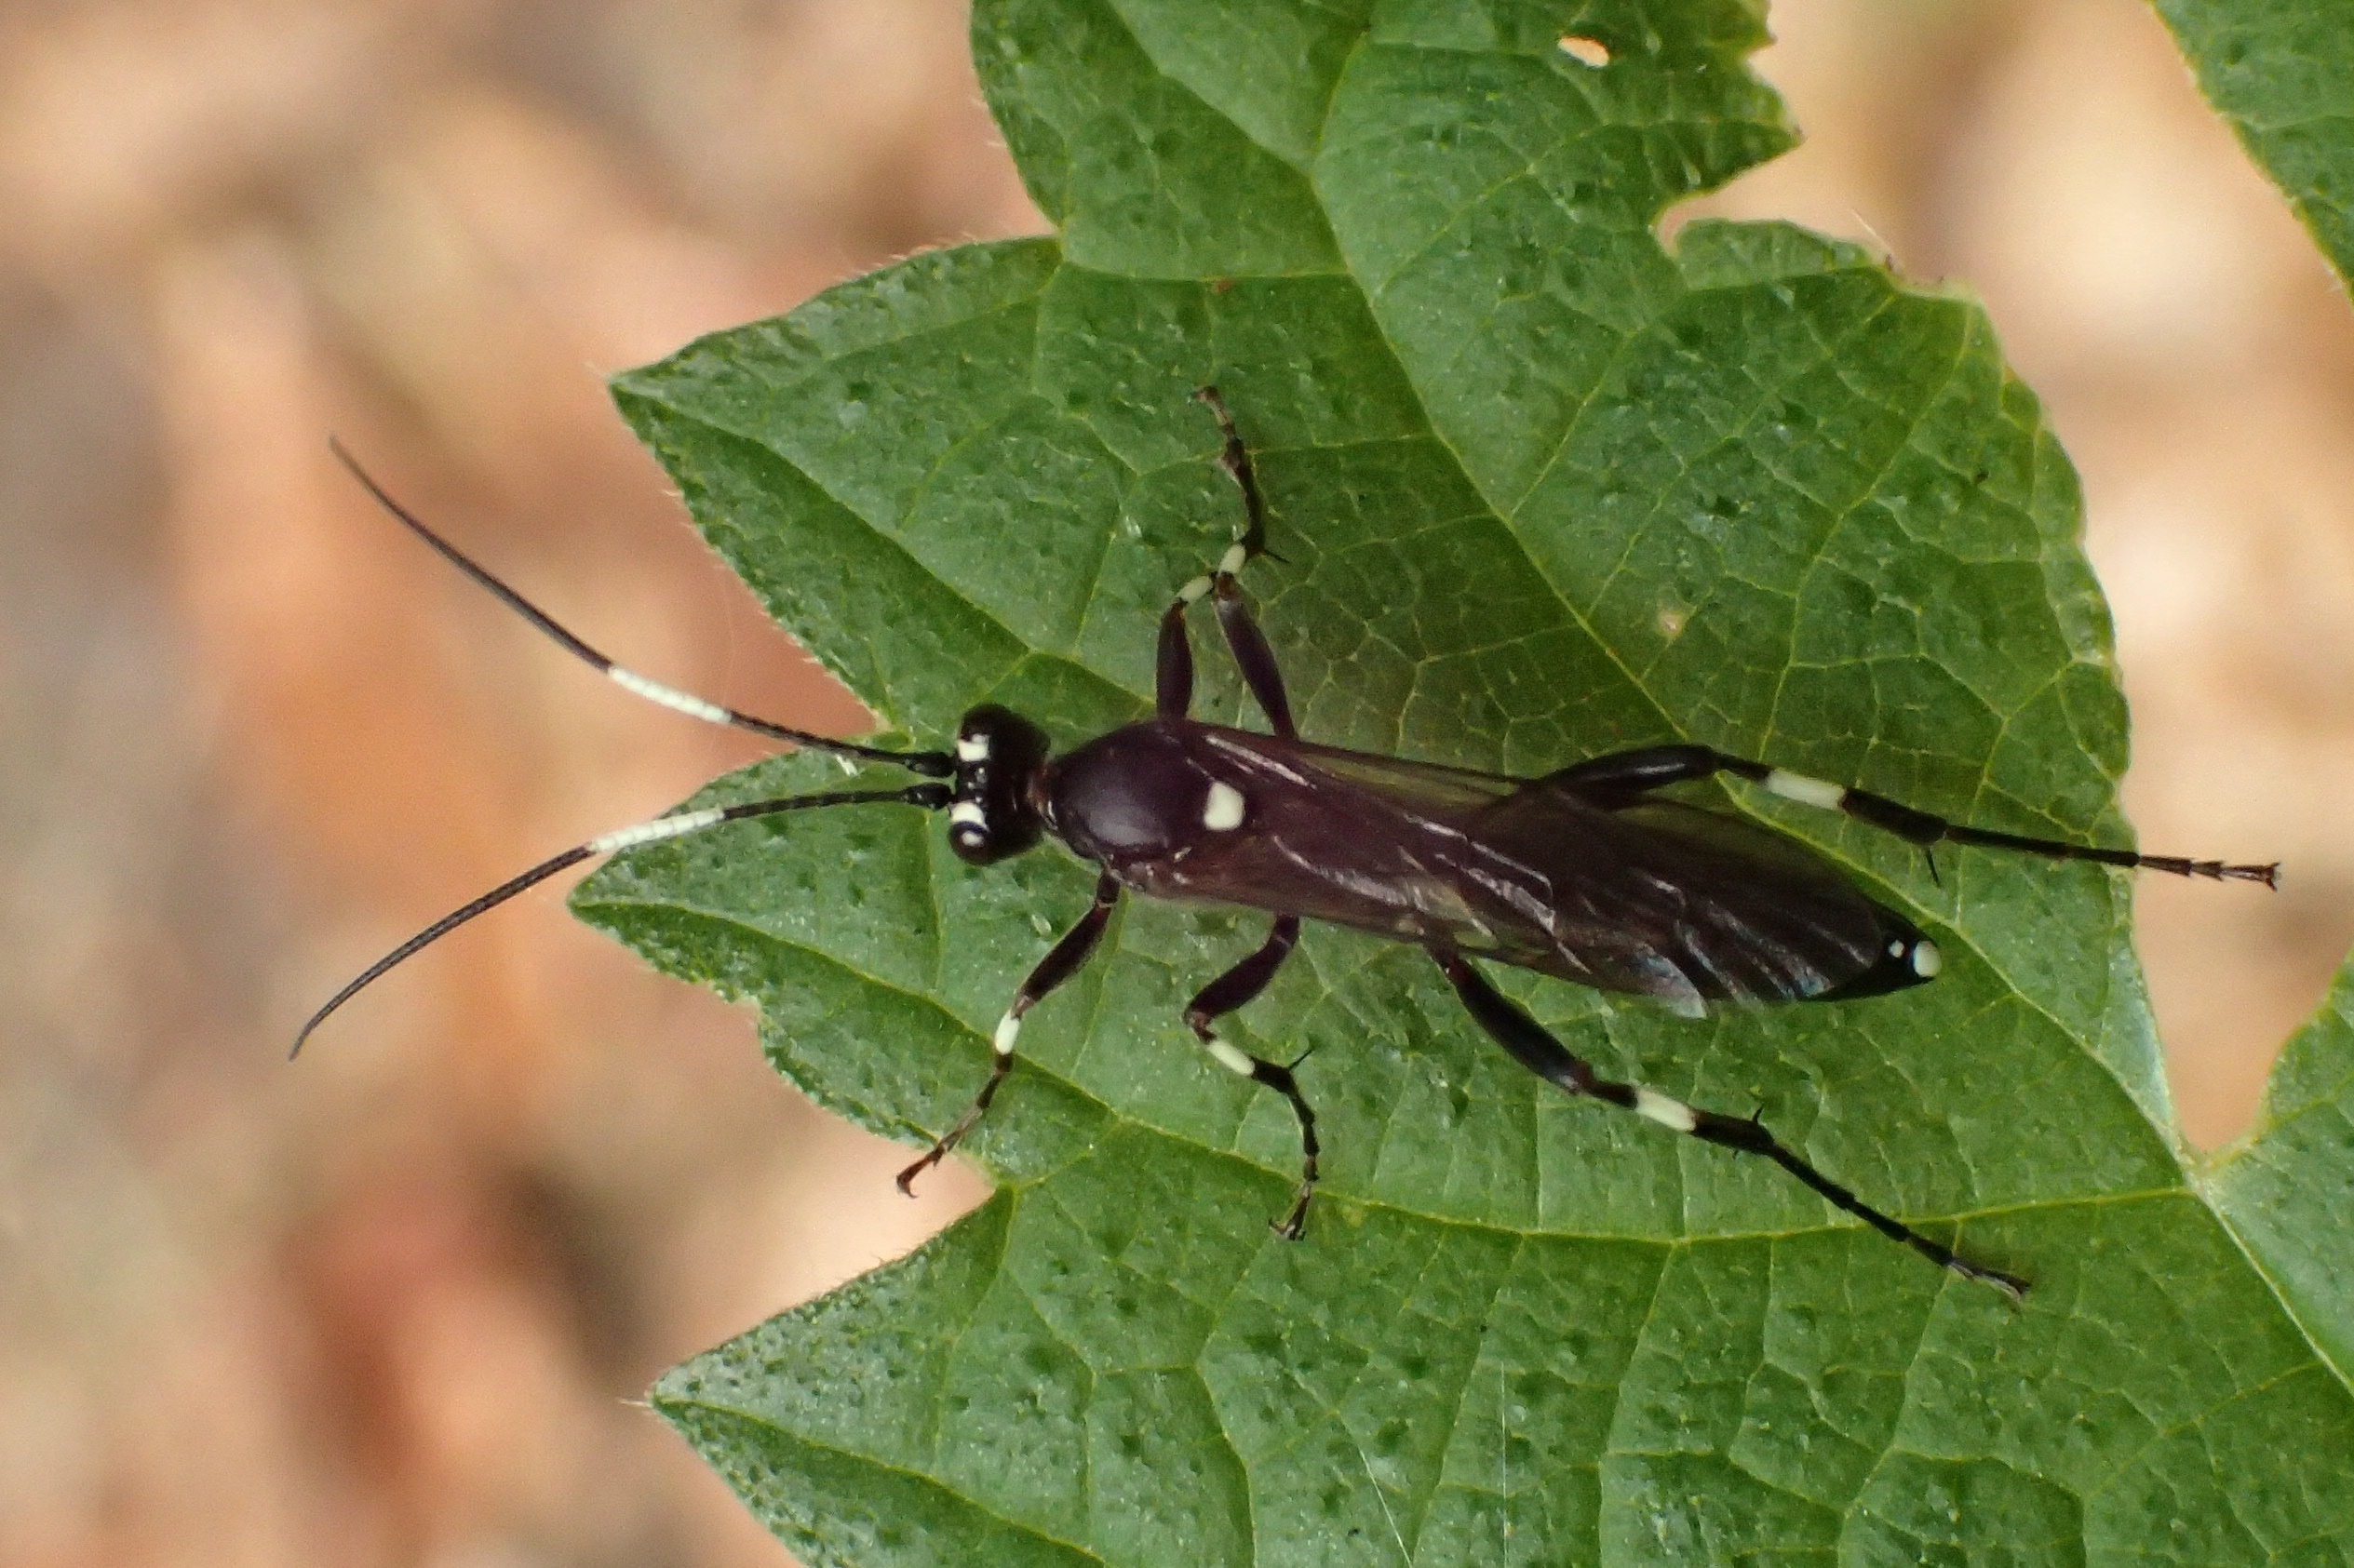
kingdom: Animalia
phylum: Arthropoda
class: Insecta
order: Hymenoptera
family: Ichneumonidae
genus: Achaius
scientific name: Achaius oratorius
